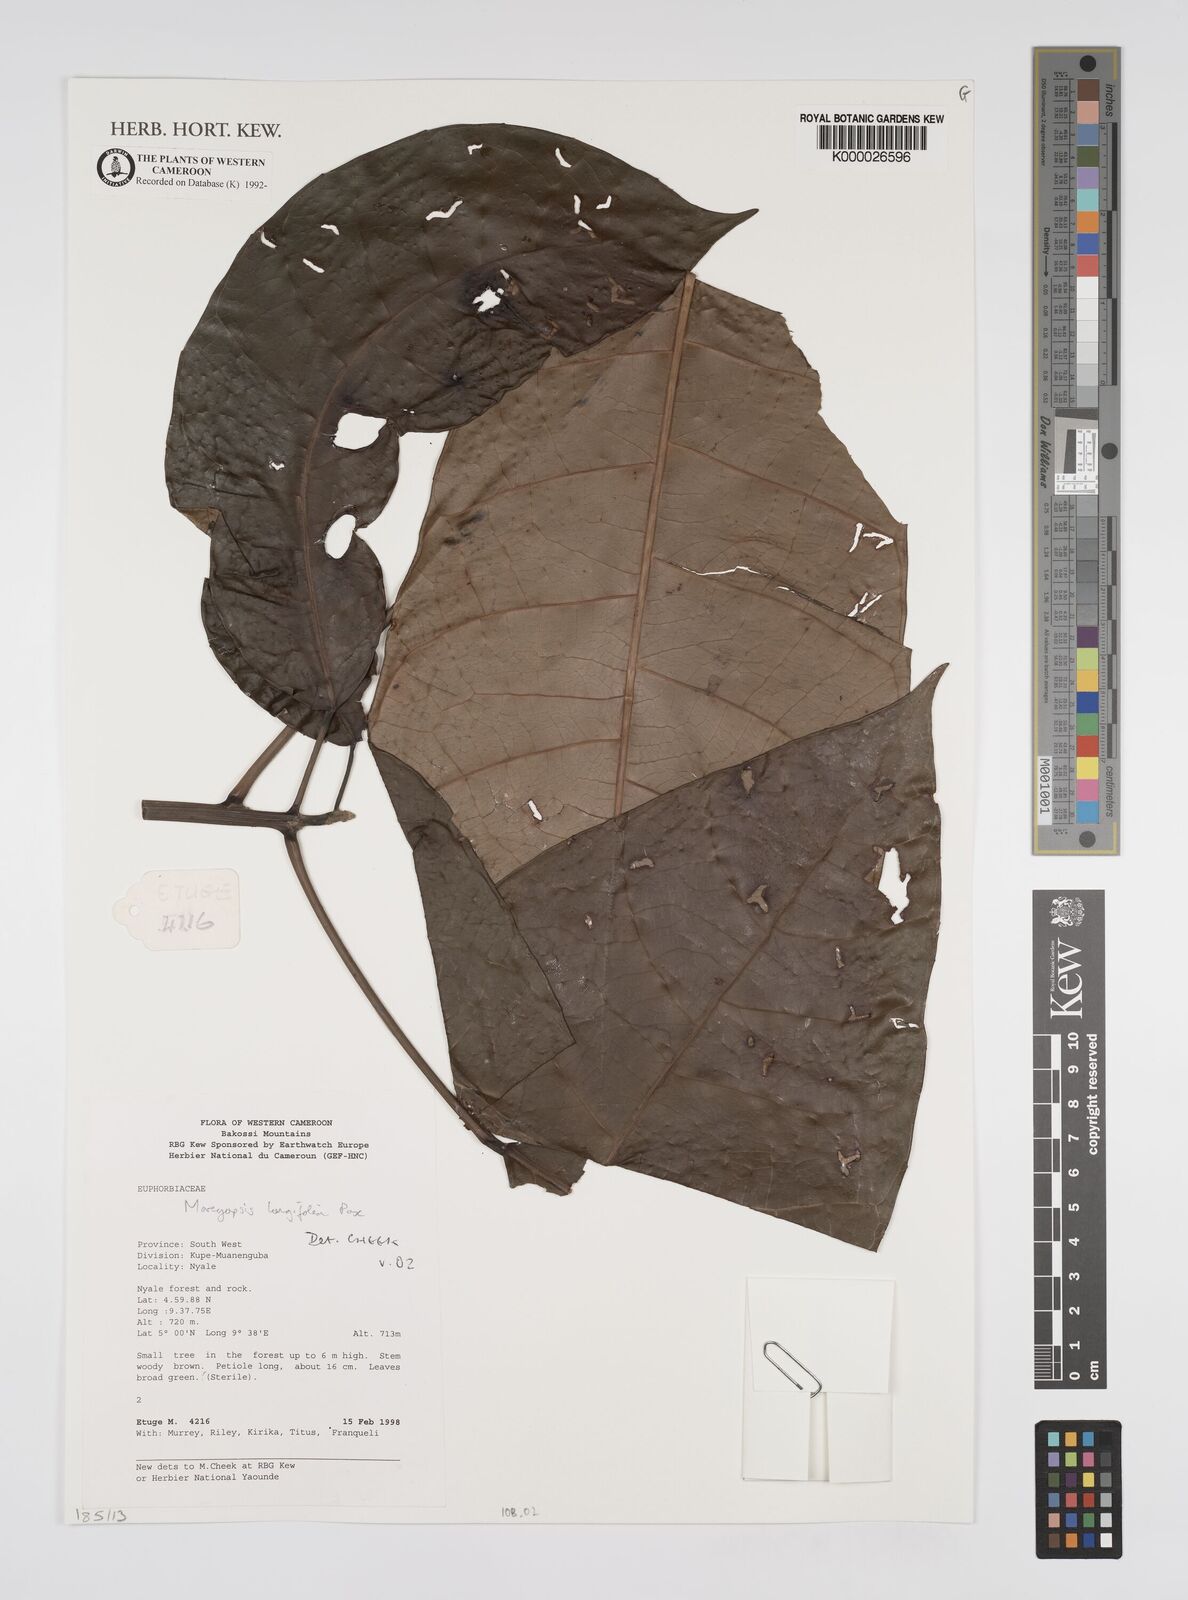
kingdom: Plantae
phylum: Tracheophyta
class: Magnoliopsida
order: Malpighiales
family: Euphorbiaceae
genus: Mareyopsis
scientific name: Mareyopsis longifolia
